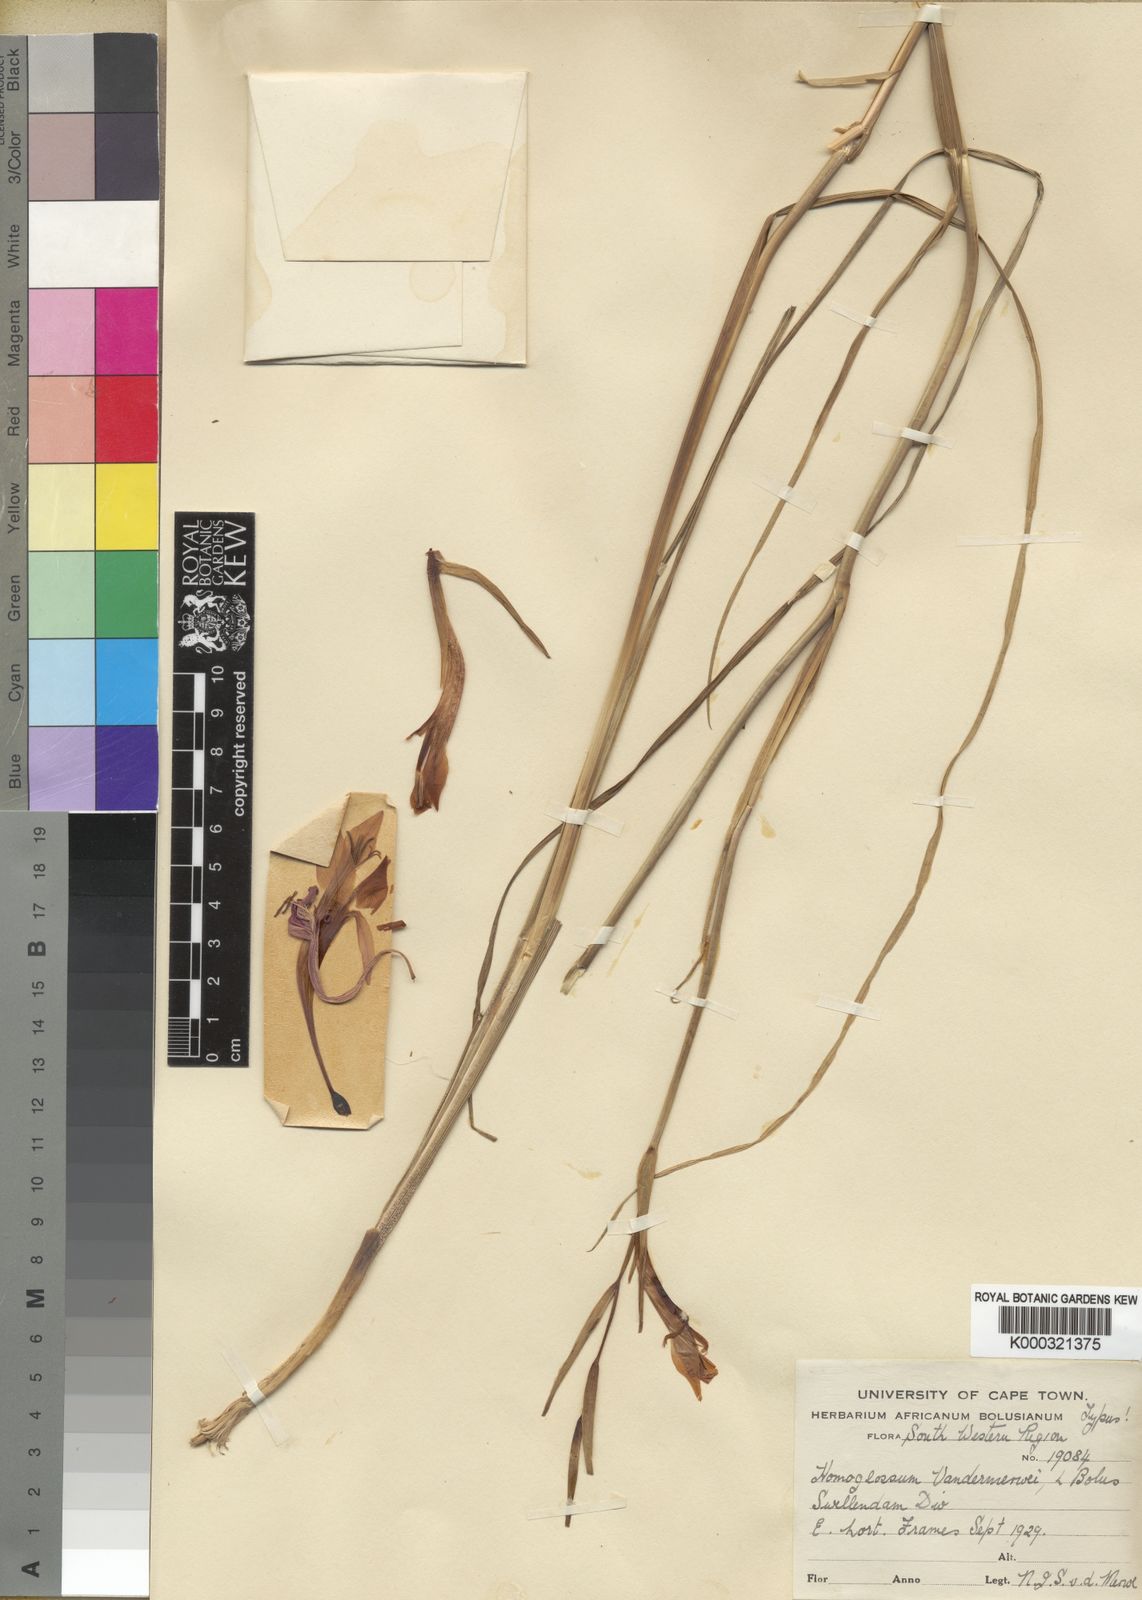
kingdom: Plantae
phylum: Tracheophyta
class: Liliopsida
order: Asparagales
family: Iridaceae
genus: Gladiolus
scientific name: Gladiolus vandermerwei
